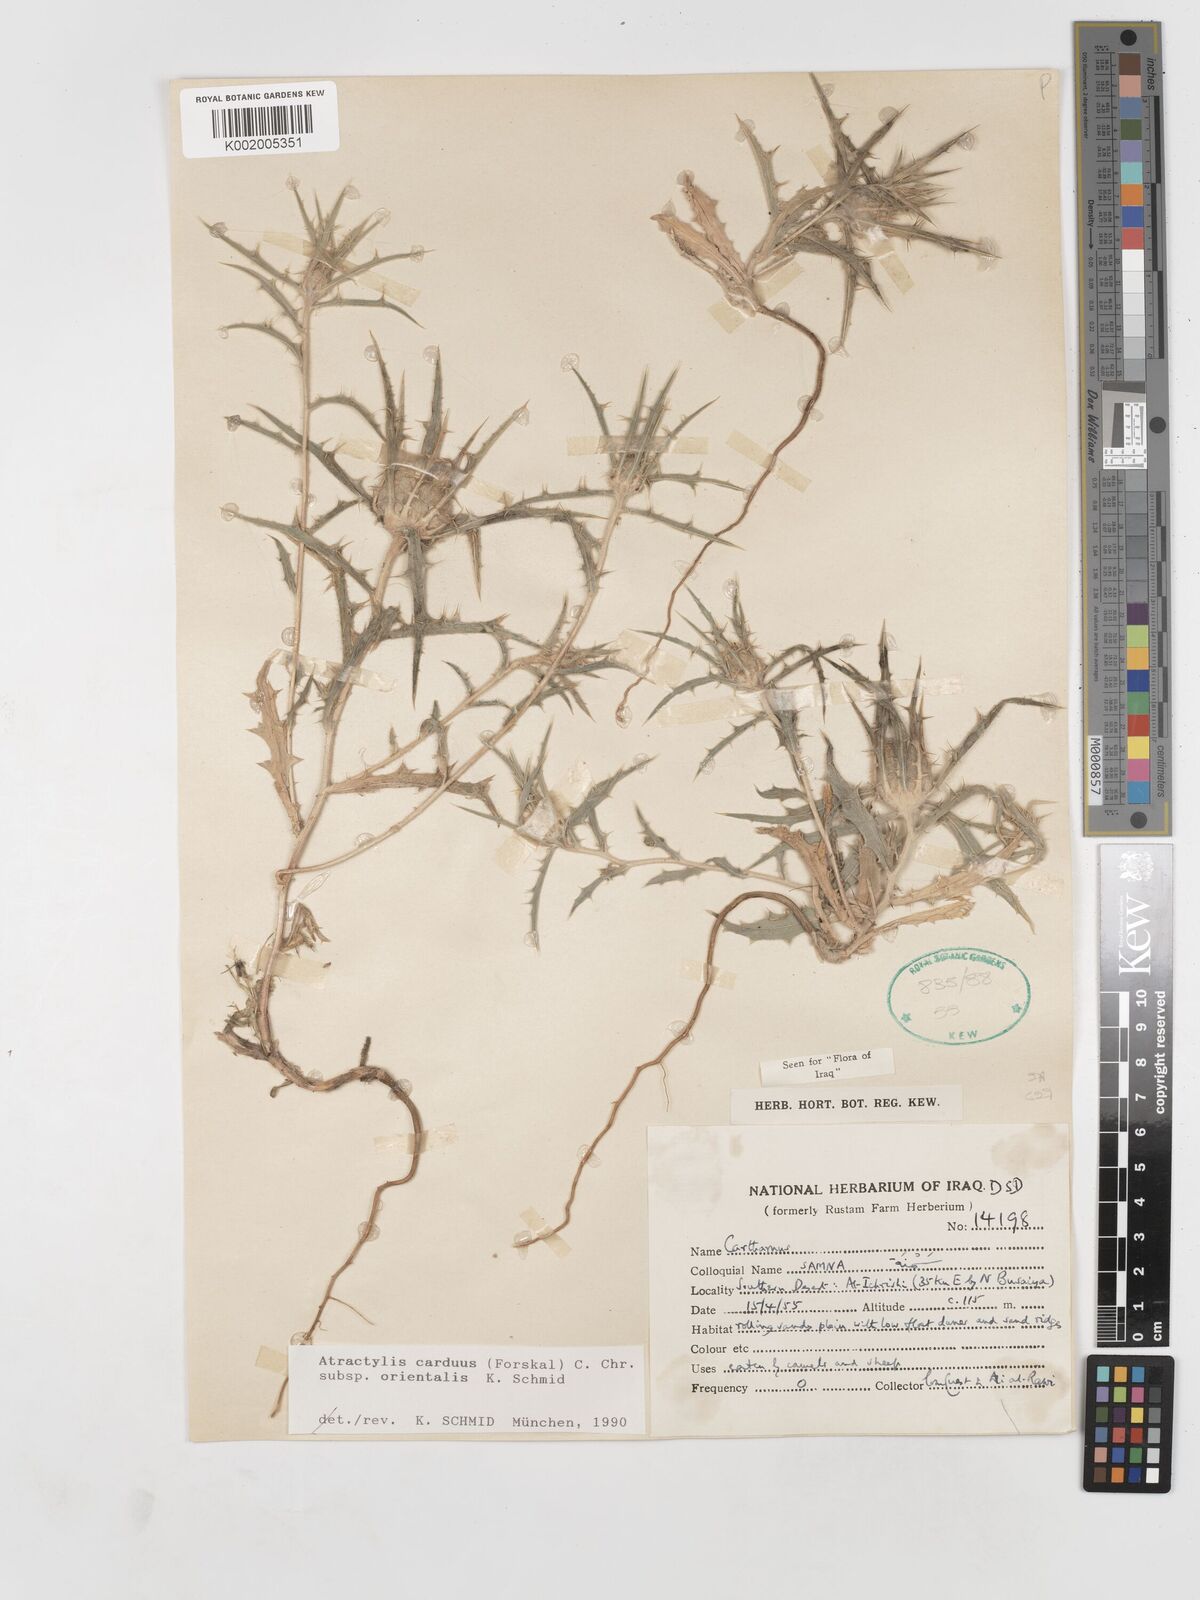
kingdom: Plantae
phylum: Tracheophyta
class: Magnoliopsida
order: Asterales
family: Asteraceae
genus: Atractylis
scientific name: Atractylis carduus
